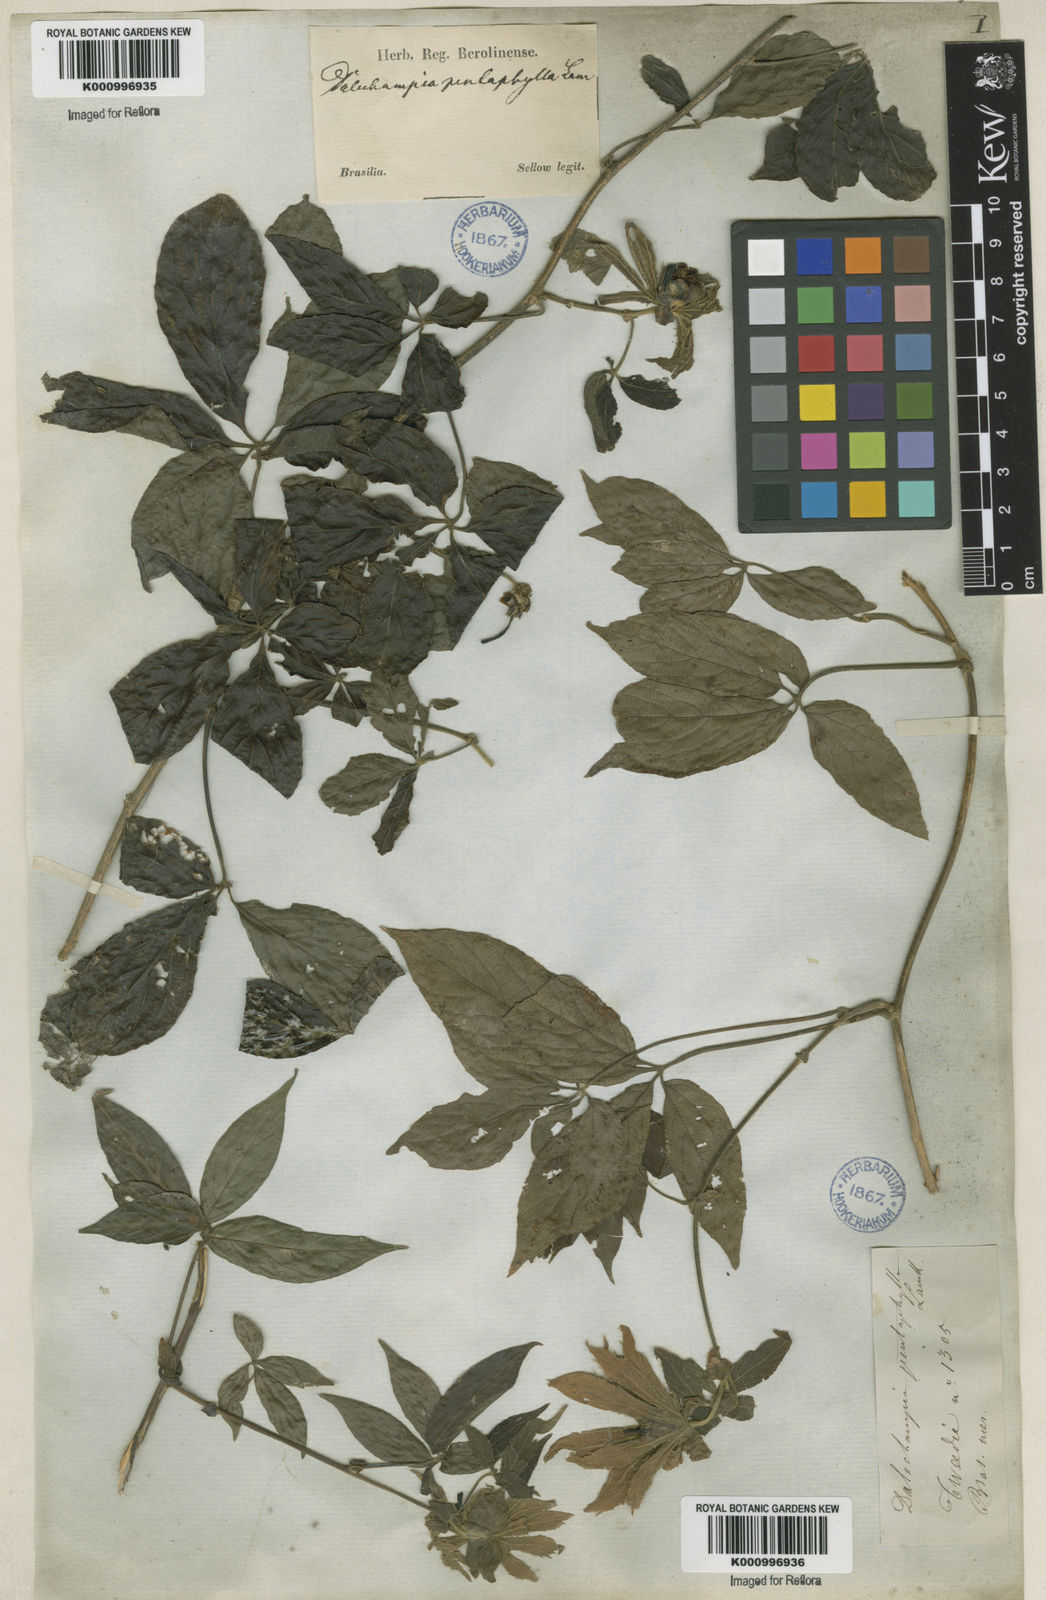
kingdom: Plantae
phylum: Tracheophyta
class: Magnoliopsida
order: Malpighiales
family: Euphorbiaceae
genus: Dalechampia
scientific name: Dalechampia pentaphylla
